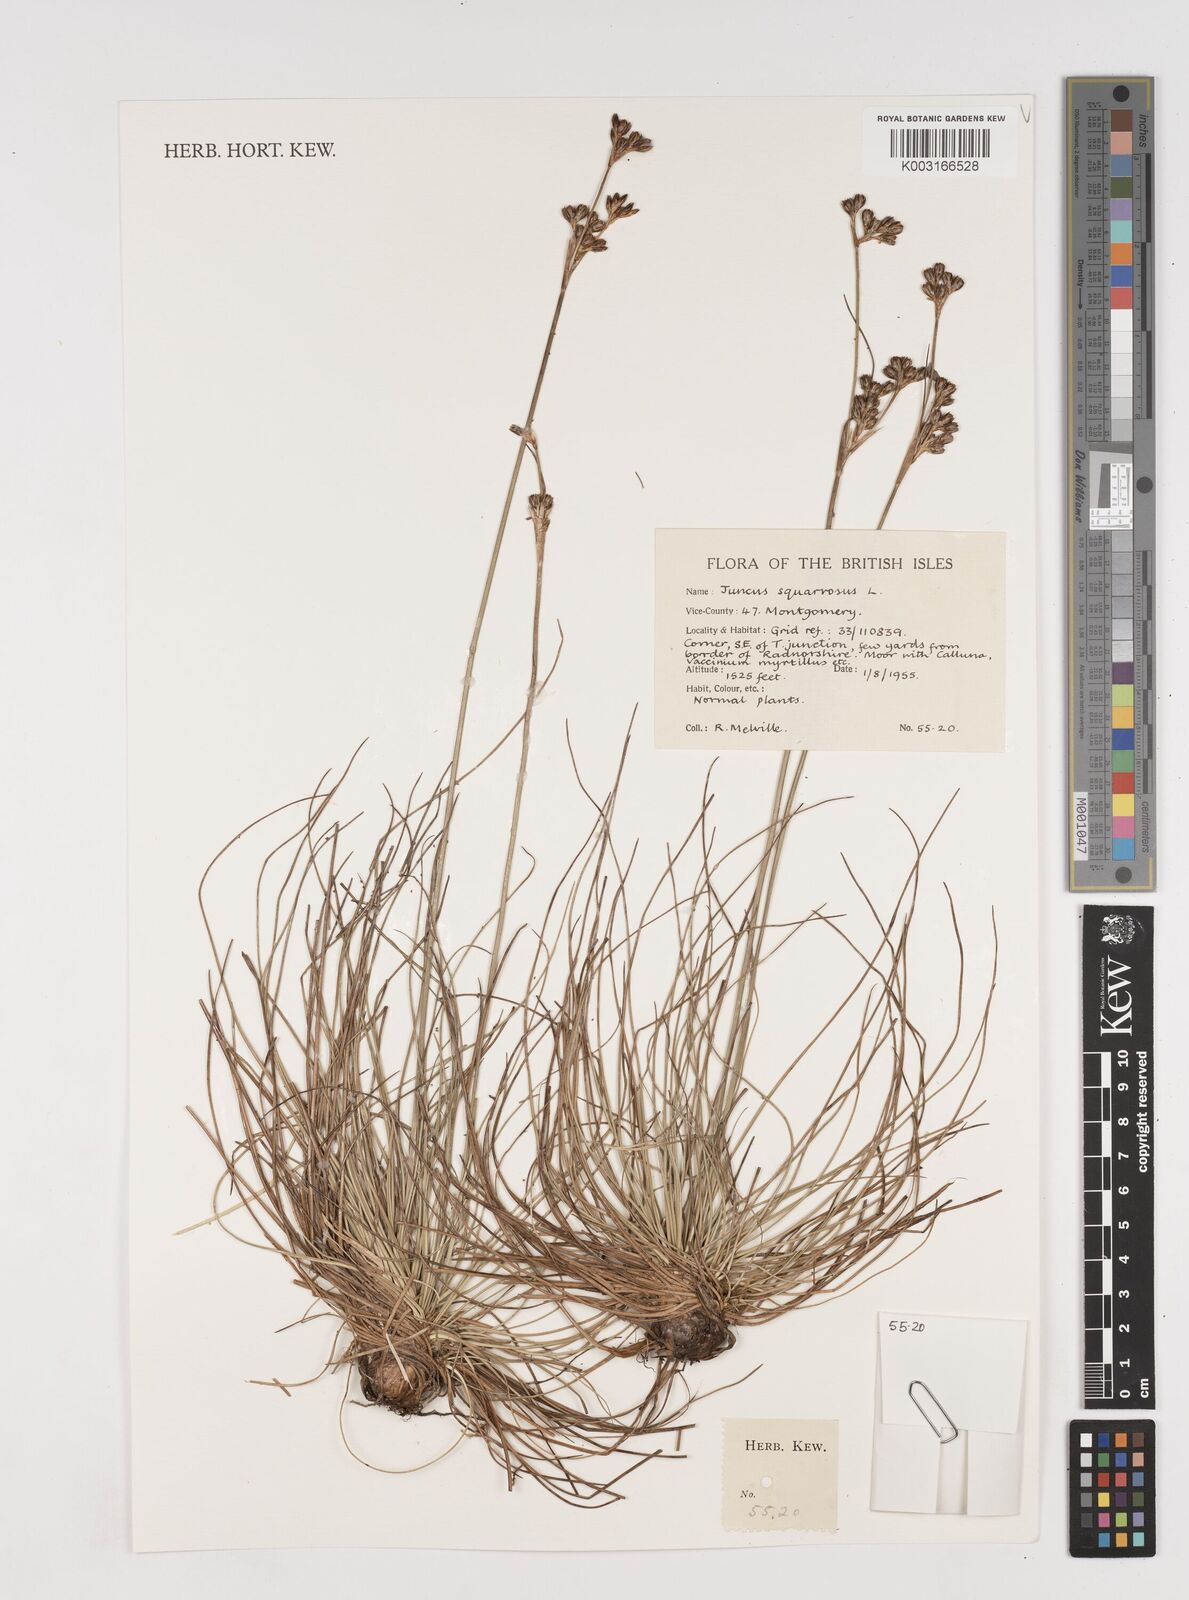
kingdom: Plantae
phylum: Tracheophyta
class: Liliopsida
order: Poales
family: Juncaceae
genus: Juncus
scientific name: Juncus squarrosus
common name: Heath rush
